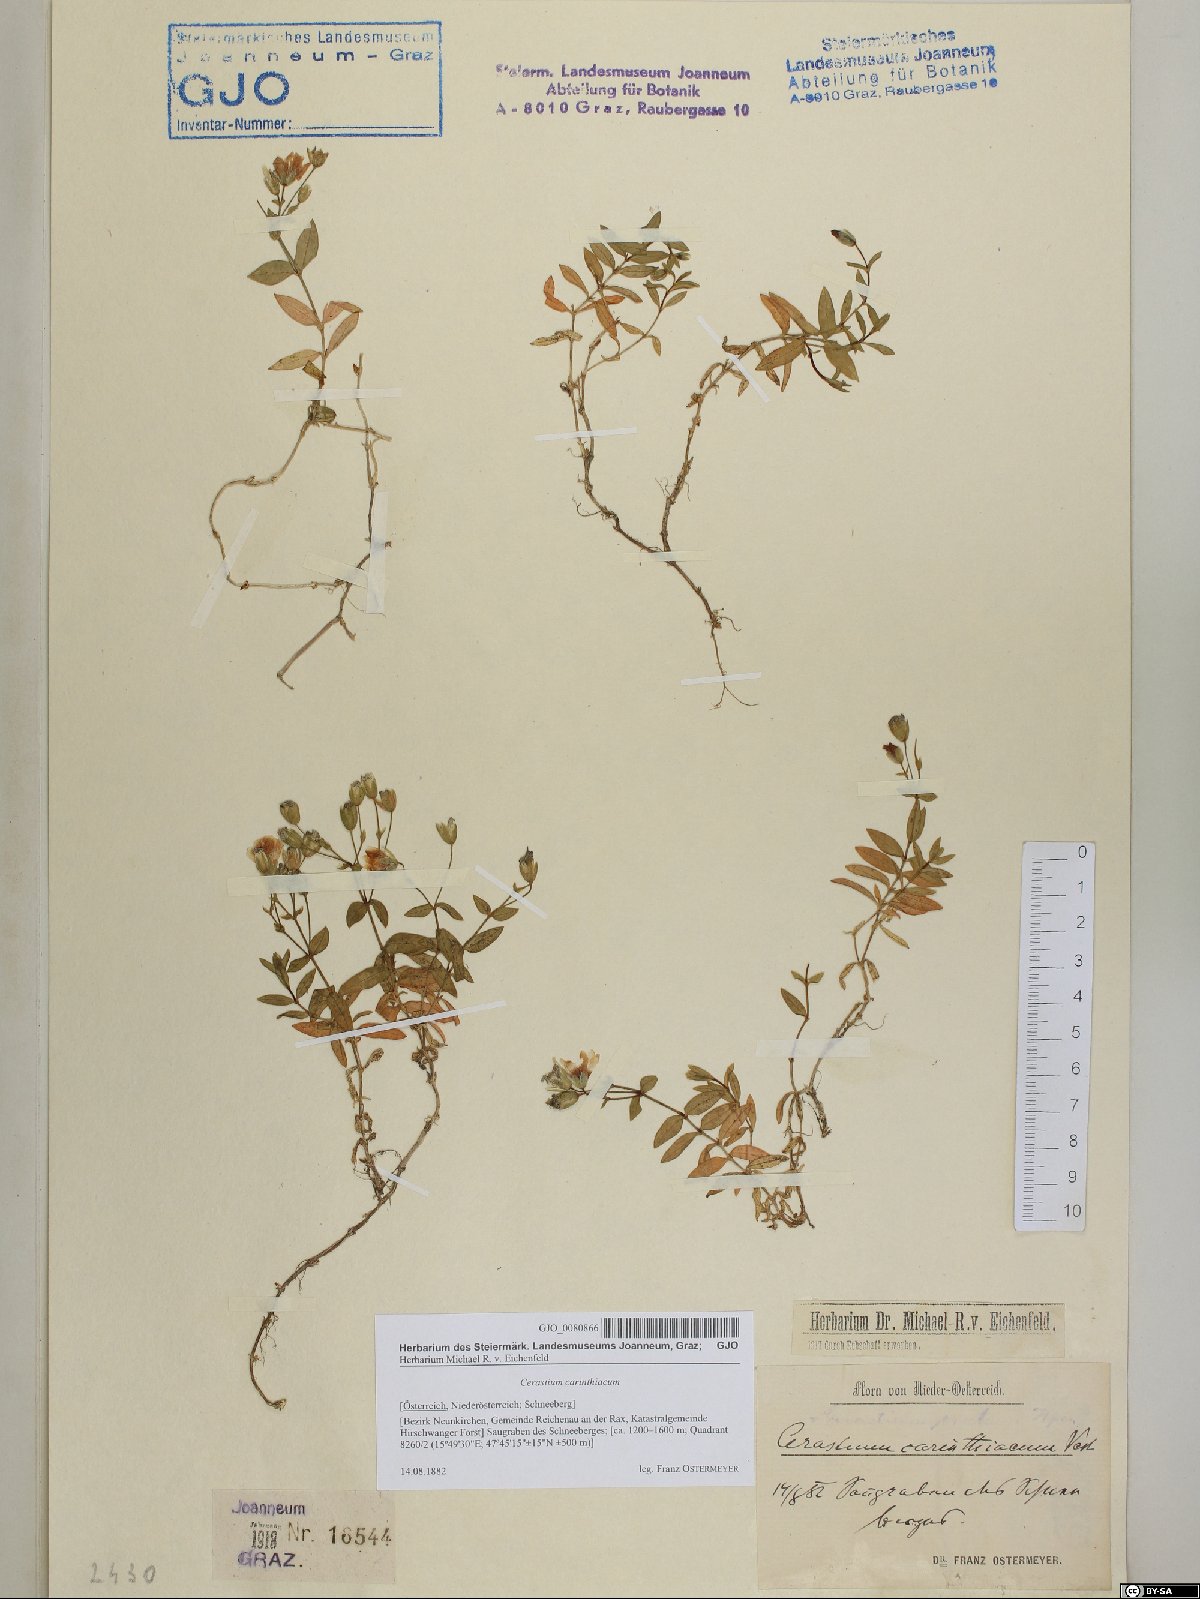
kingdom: Plantae
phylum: Tracheophyta
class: Magnoliopsida
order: Caryophyllales
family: Caryophyllaceae
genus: Cerastium
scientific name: Cerastium carinthiacum
